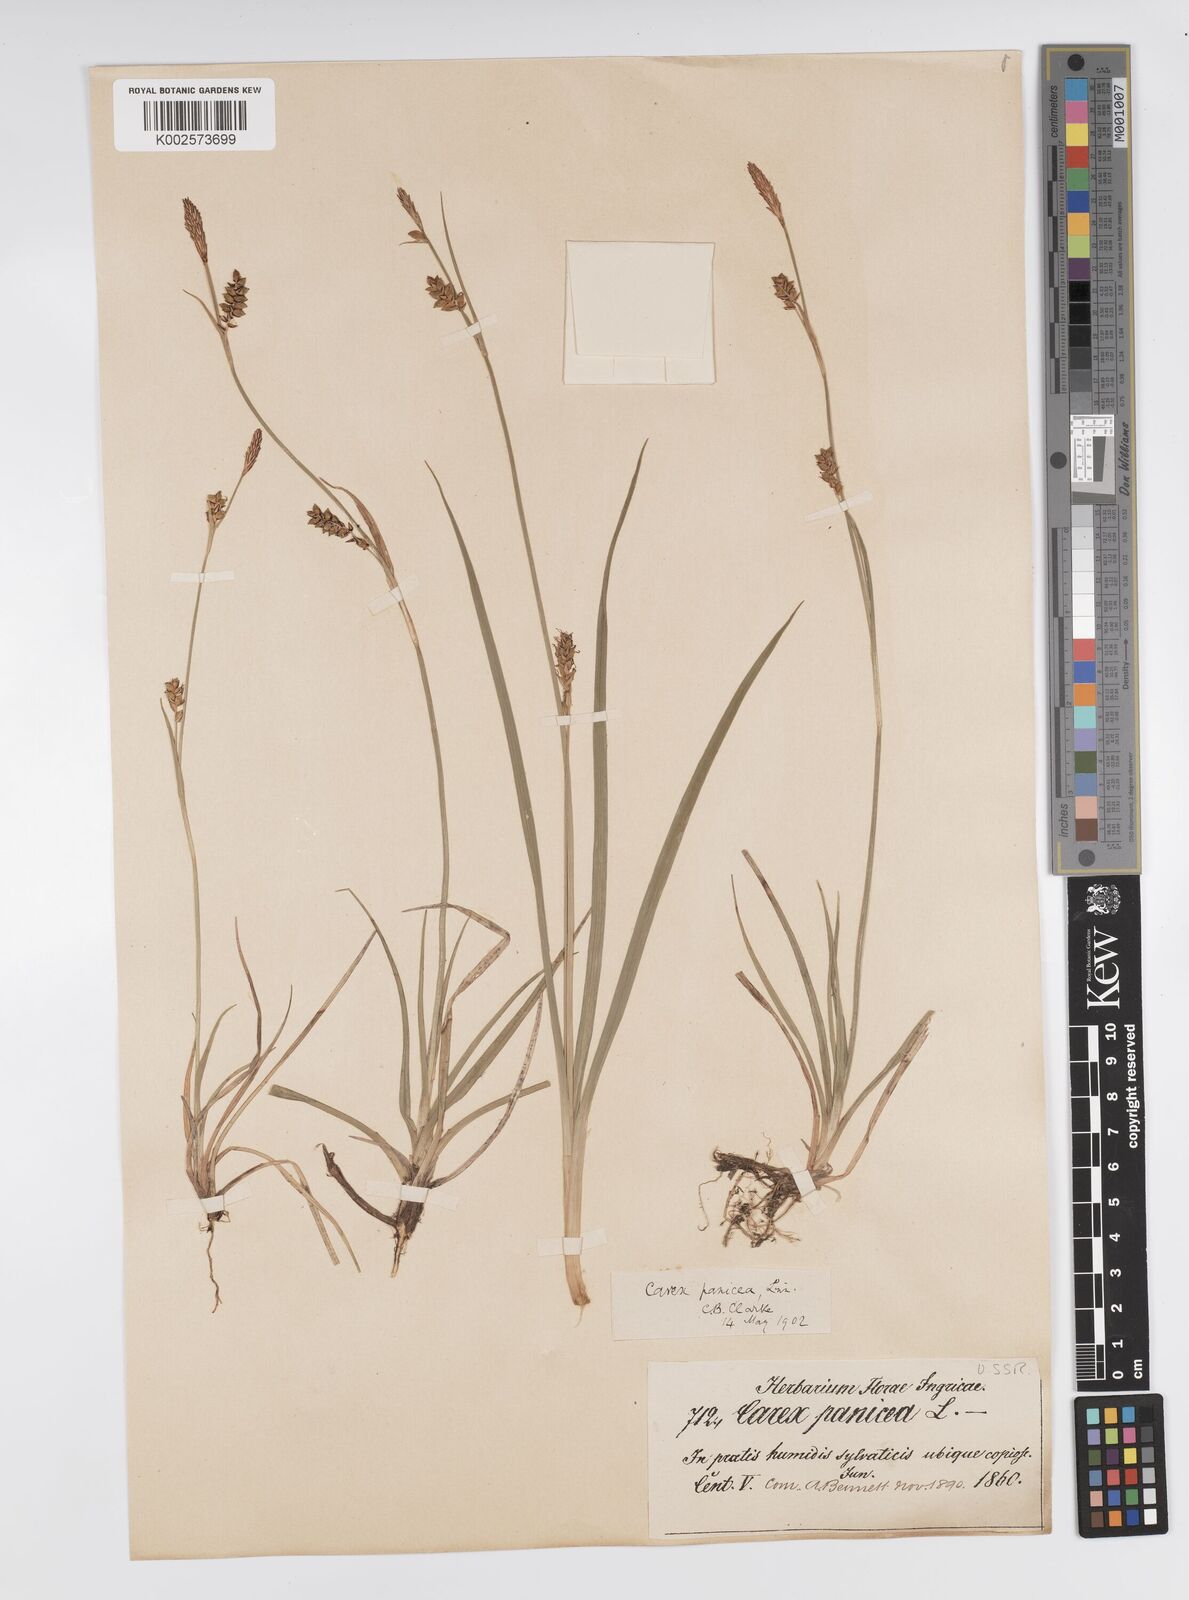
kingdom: Plantae
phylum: Tracheophyta
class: Liliopsida
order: Poales
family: Cyperaceae
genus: Carex
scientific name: Carex panicea
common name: Carnation sedge
